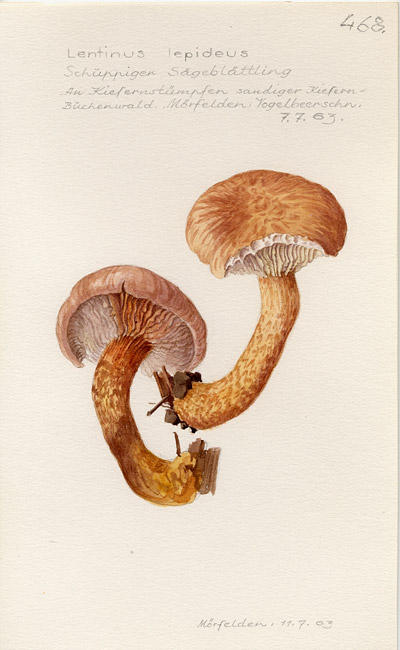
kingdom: Fungi
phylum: Basidiomycota
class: Agaricomycetes
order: Gloeophyllales
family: Gloeophyllaceae
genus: Neolentinus
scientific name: Neolentinus lepideus
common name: Scaly sawgill
